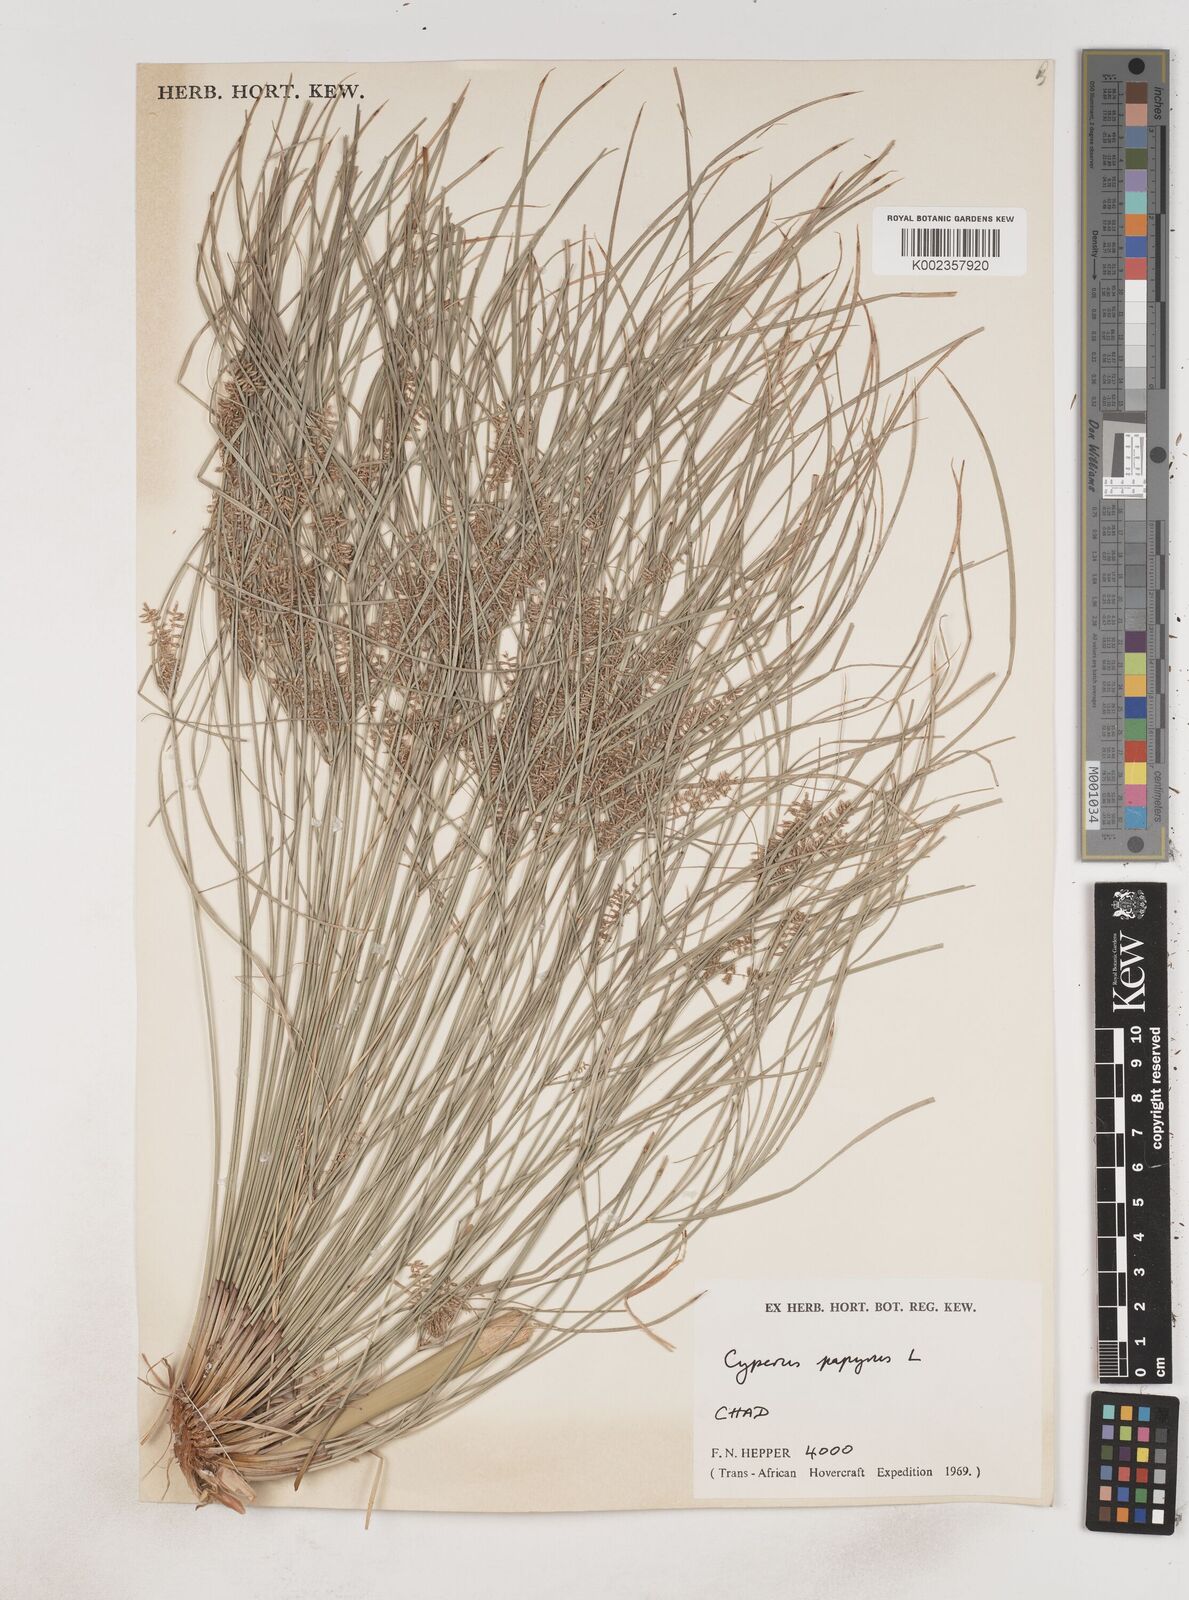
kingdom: Plantae
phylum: Tracheophyta
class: Liliopsida
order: Poales
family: Cyperaceae
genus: Cyperus
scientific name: Cyperus papyrus
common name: Papyrus
